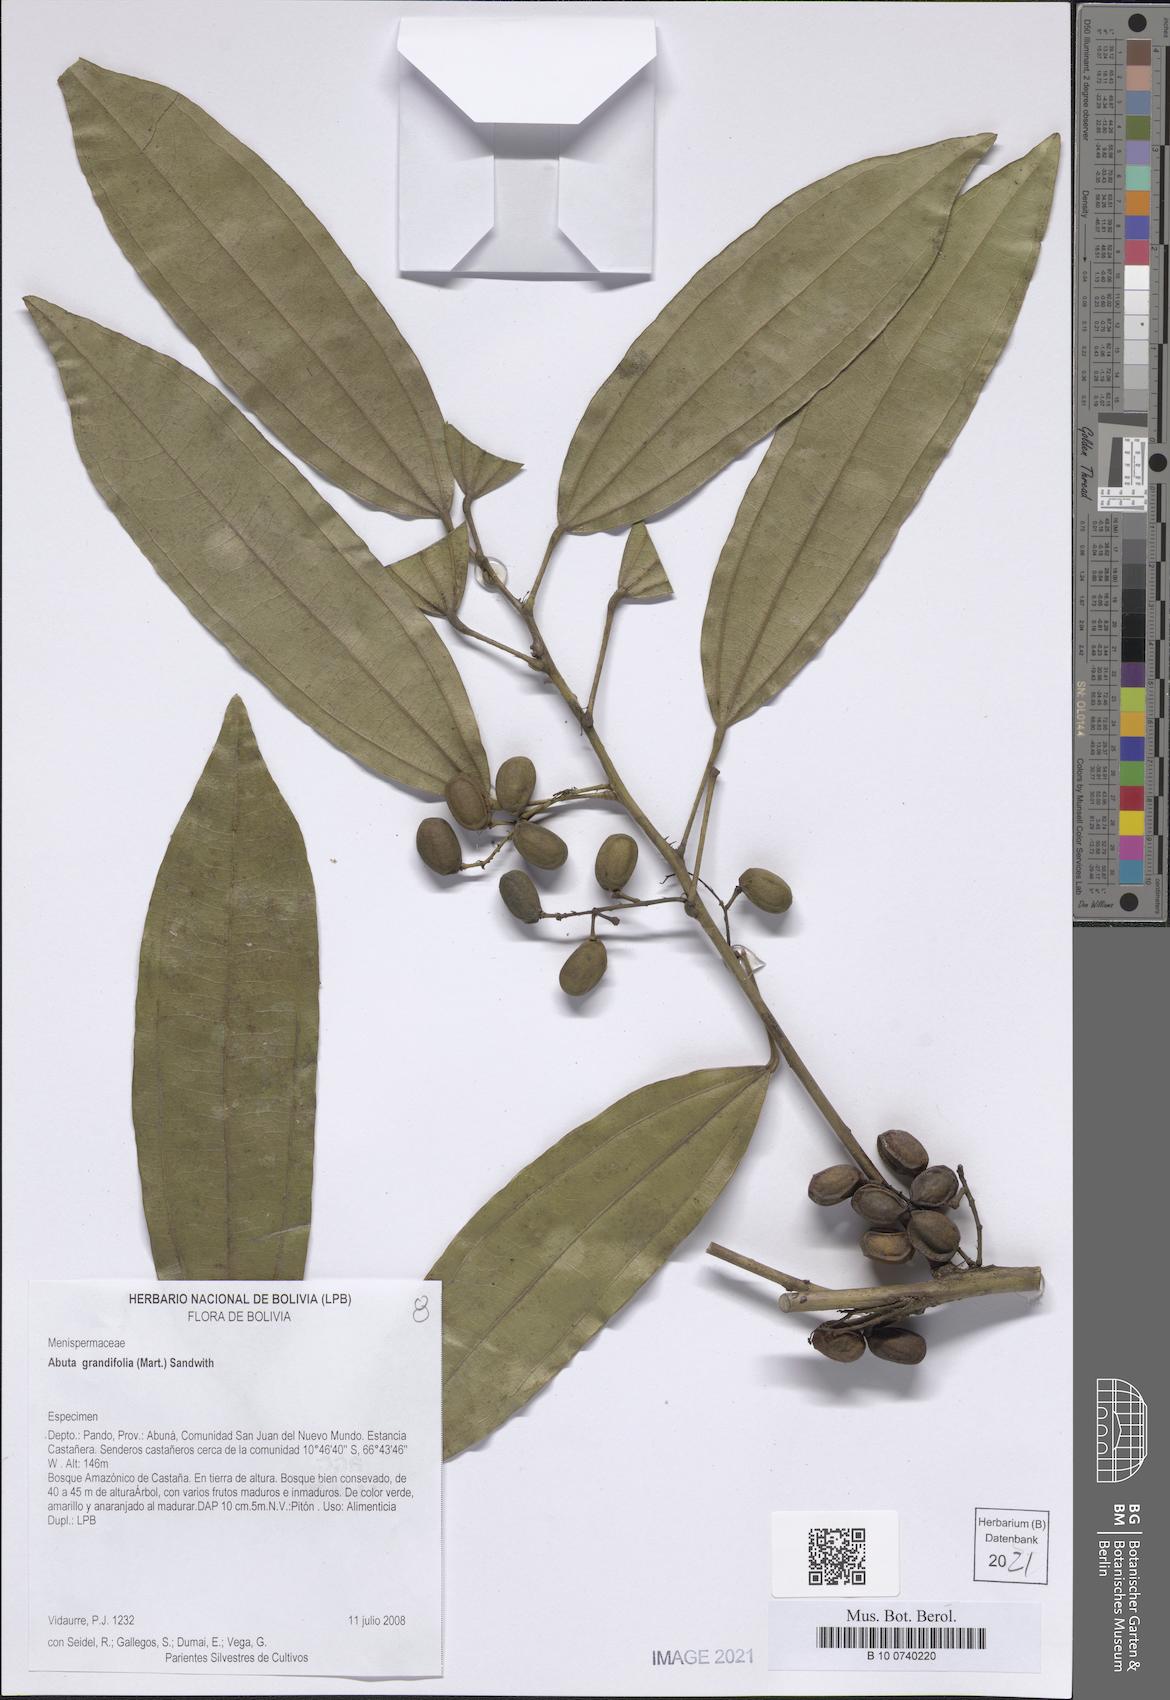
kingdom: Plantae
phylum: Tracheophyta
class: Magnoliopsida
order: Ranunculales
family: Menispermaceae
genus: Abuta
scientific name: Abuta grandifolia
